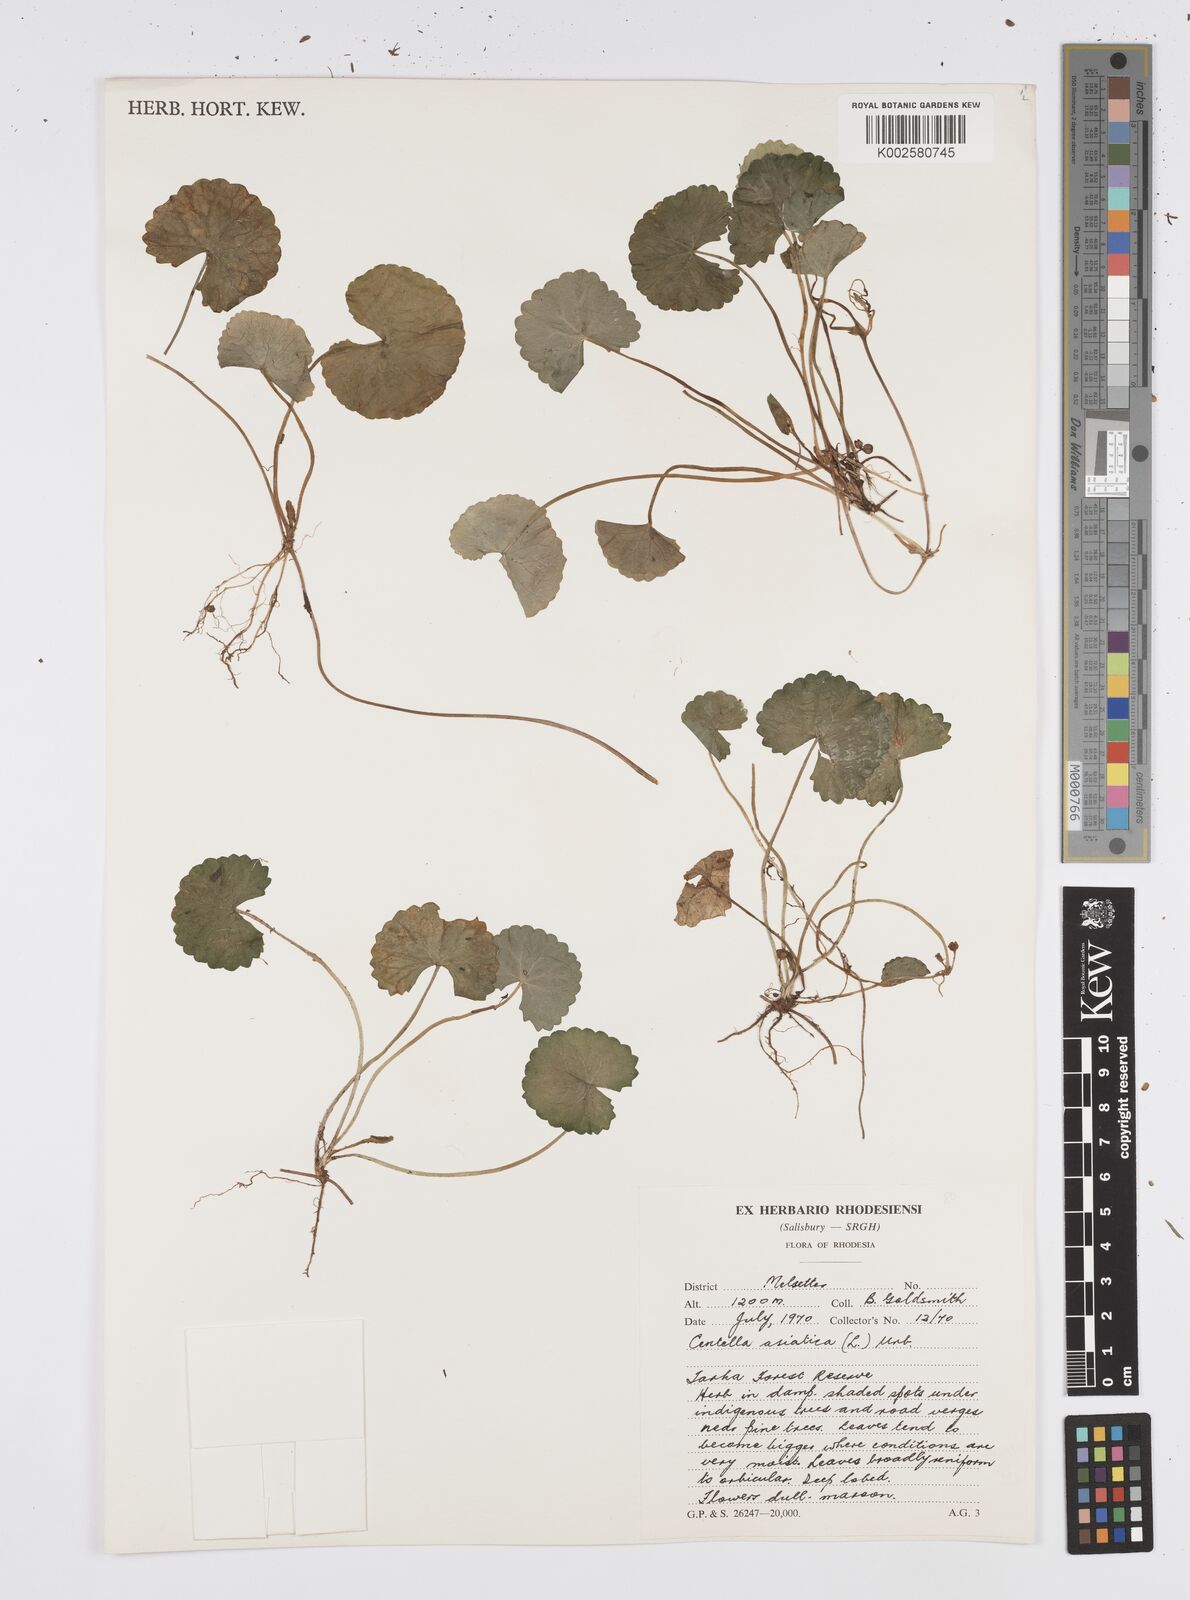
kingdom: Plantae
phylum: Tracheophyta
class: Magnoliopsida
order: Apiales
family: Apiaceae
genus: Centella
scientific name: Centella asiatica
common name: Spadeleaf
